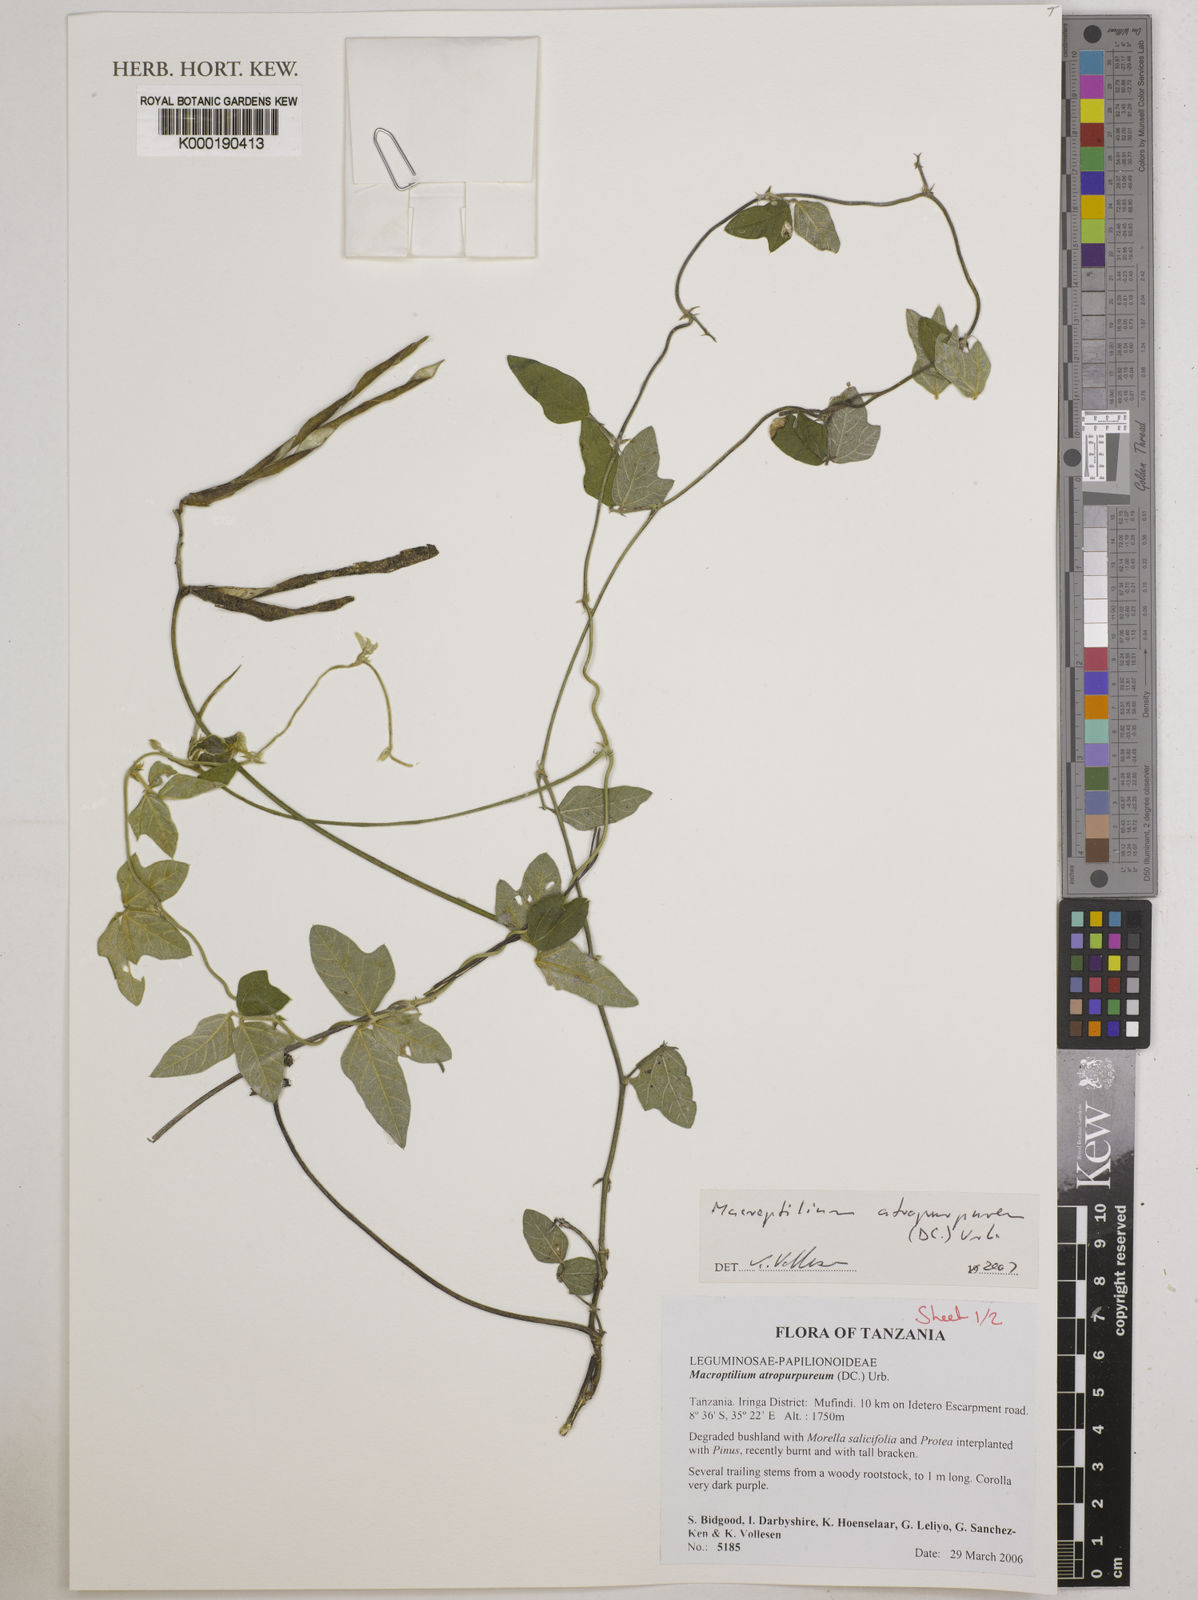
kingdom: Plantae
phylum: Tracheophyta
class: Magnoliopsida
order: Fabales
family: Fabaceae
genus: Macroptilium
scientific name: Macroptilium atropurpureum
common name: Purple bushbean
